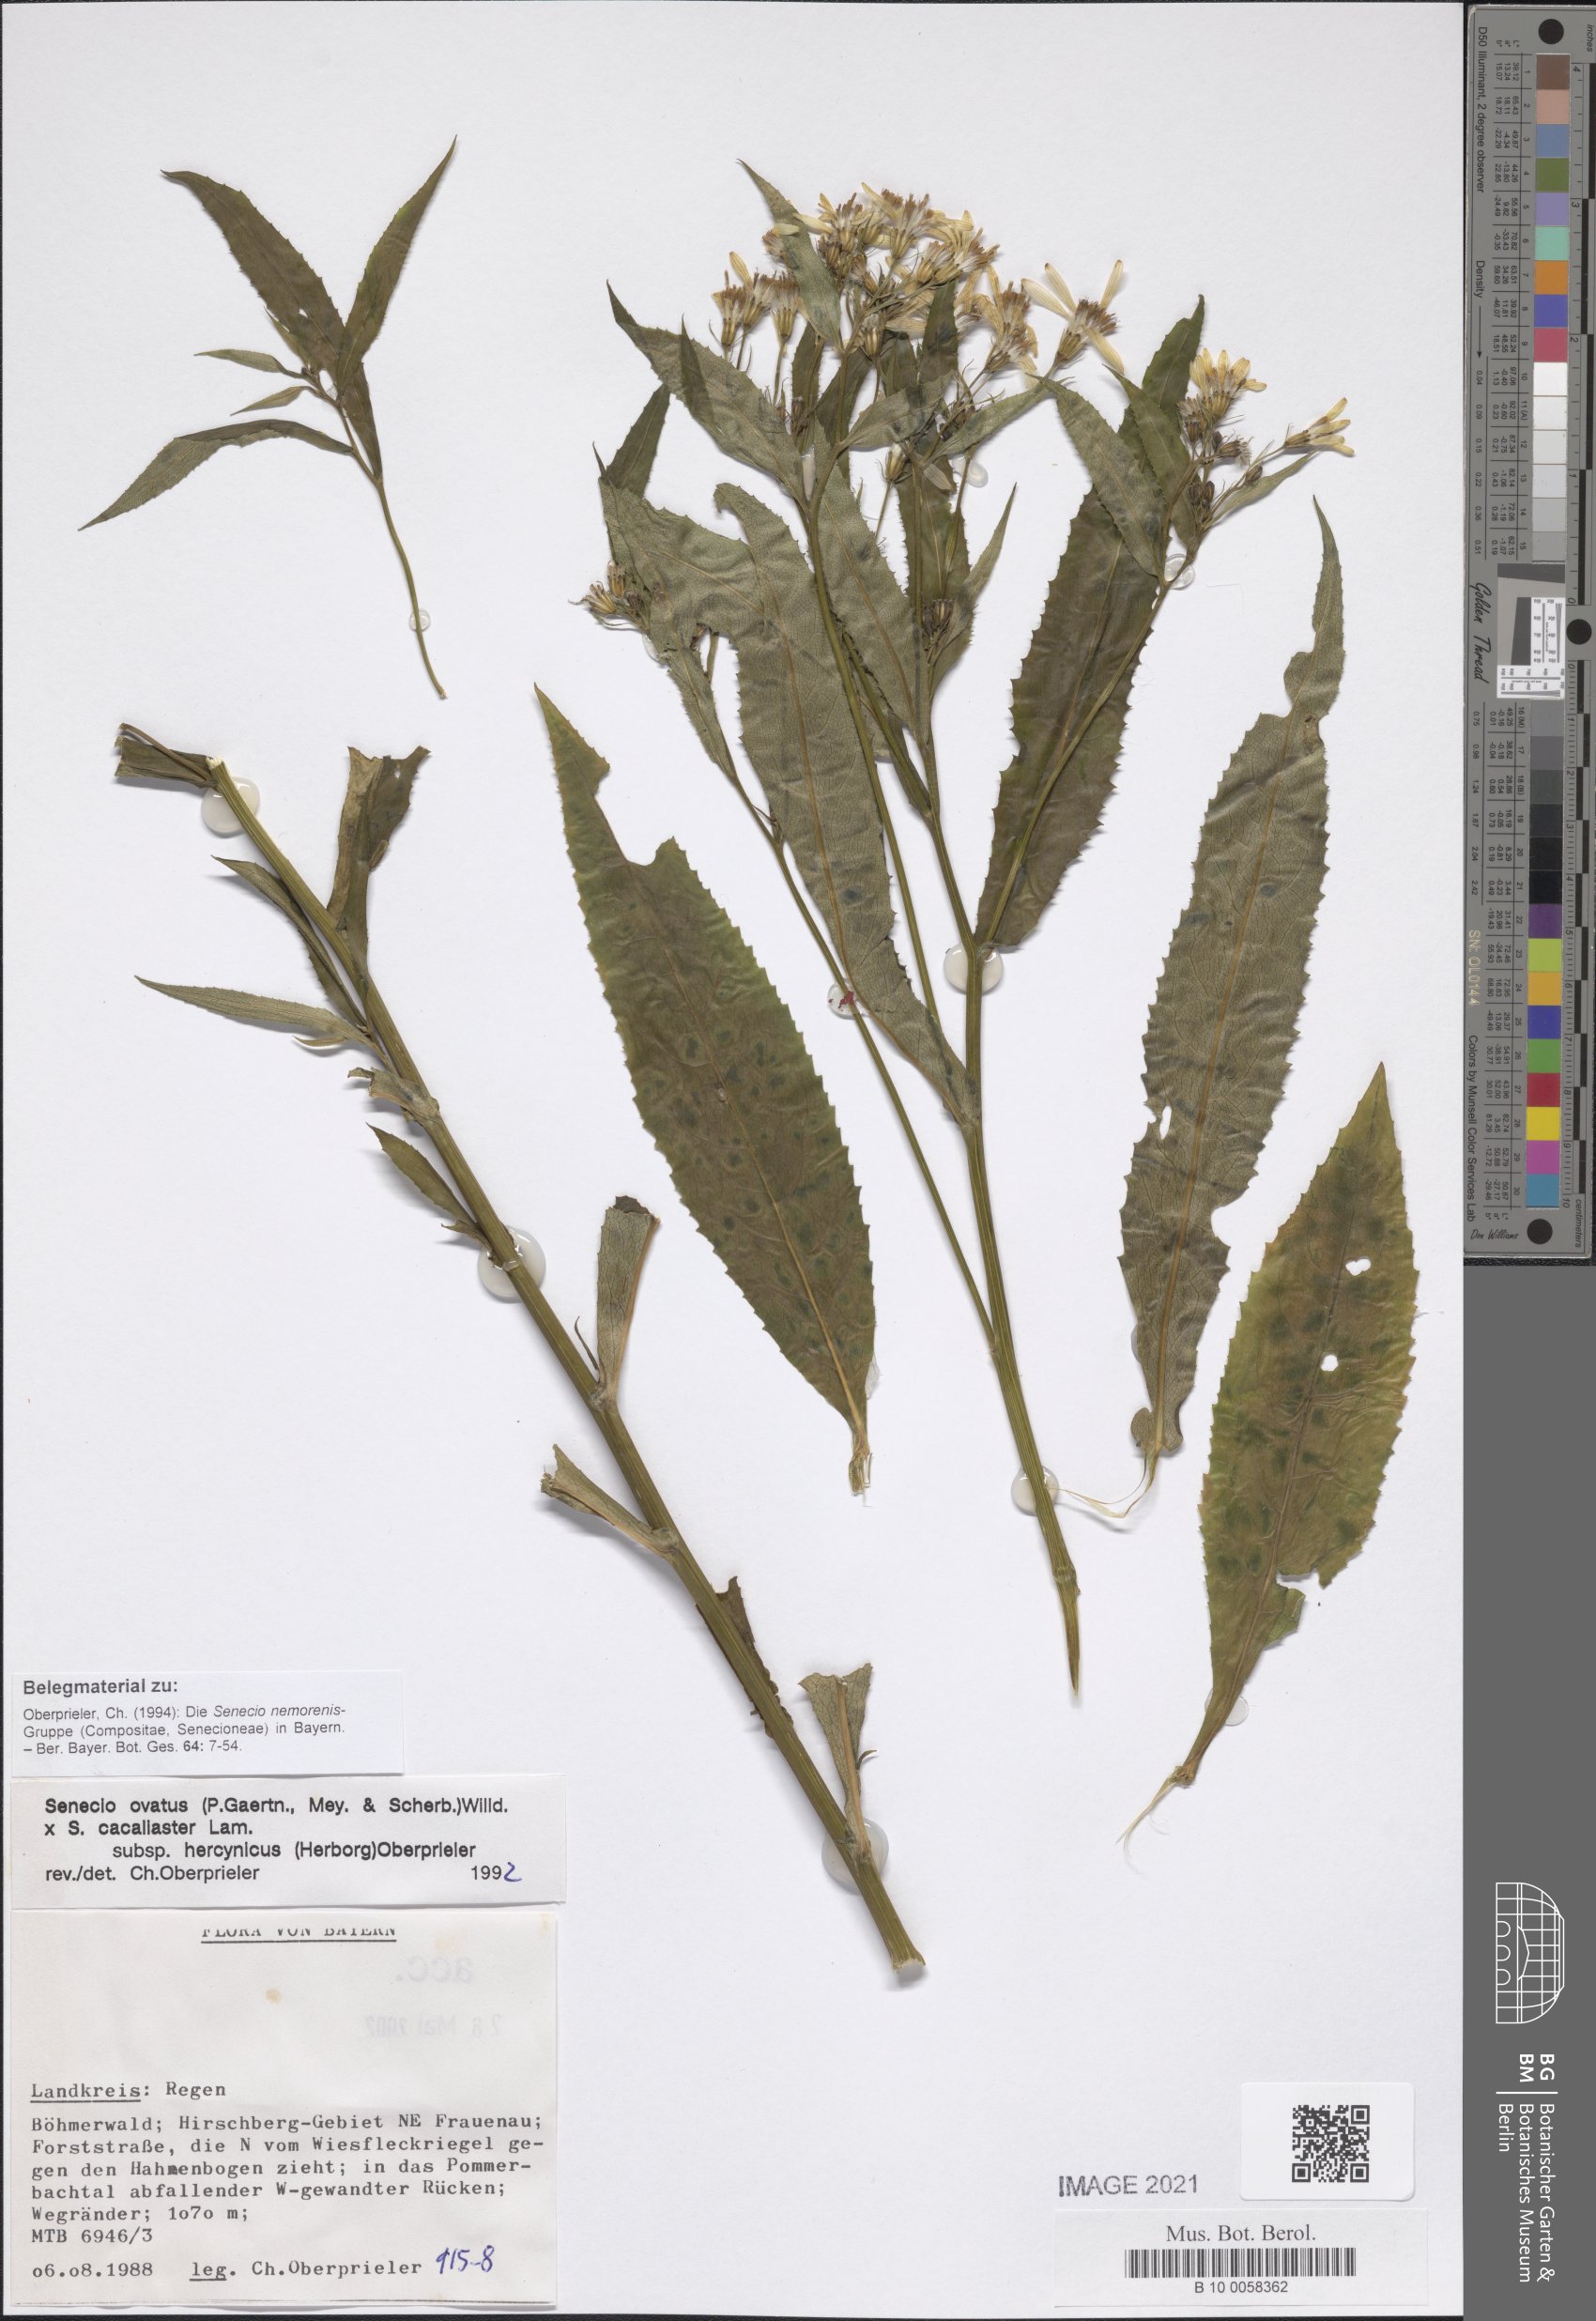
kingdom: Plantae
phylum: Tracheophyta
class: Magnoliopsida
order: Asterales
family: Asteraceae
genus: Senecio
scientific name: Senecio ovatus
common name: Wood ragwort
